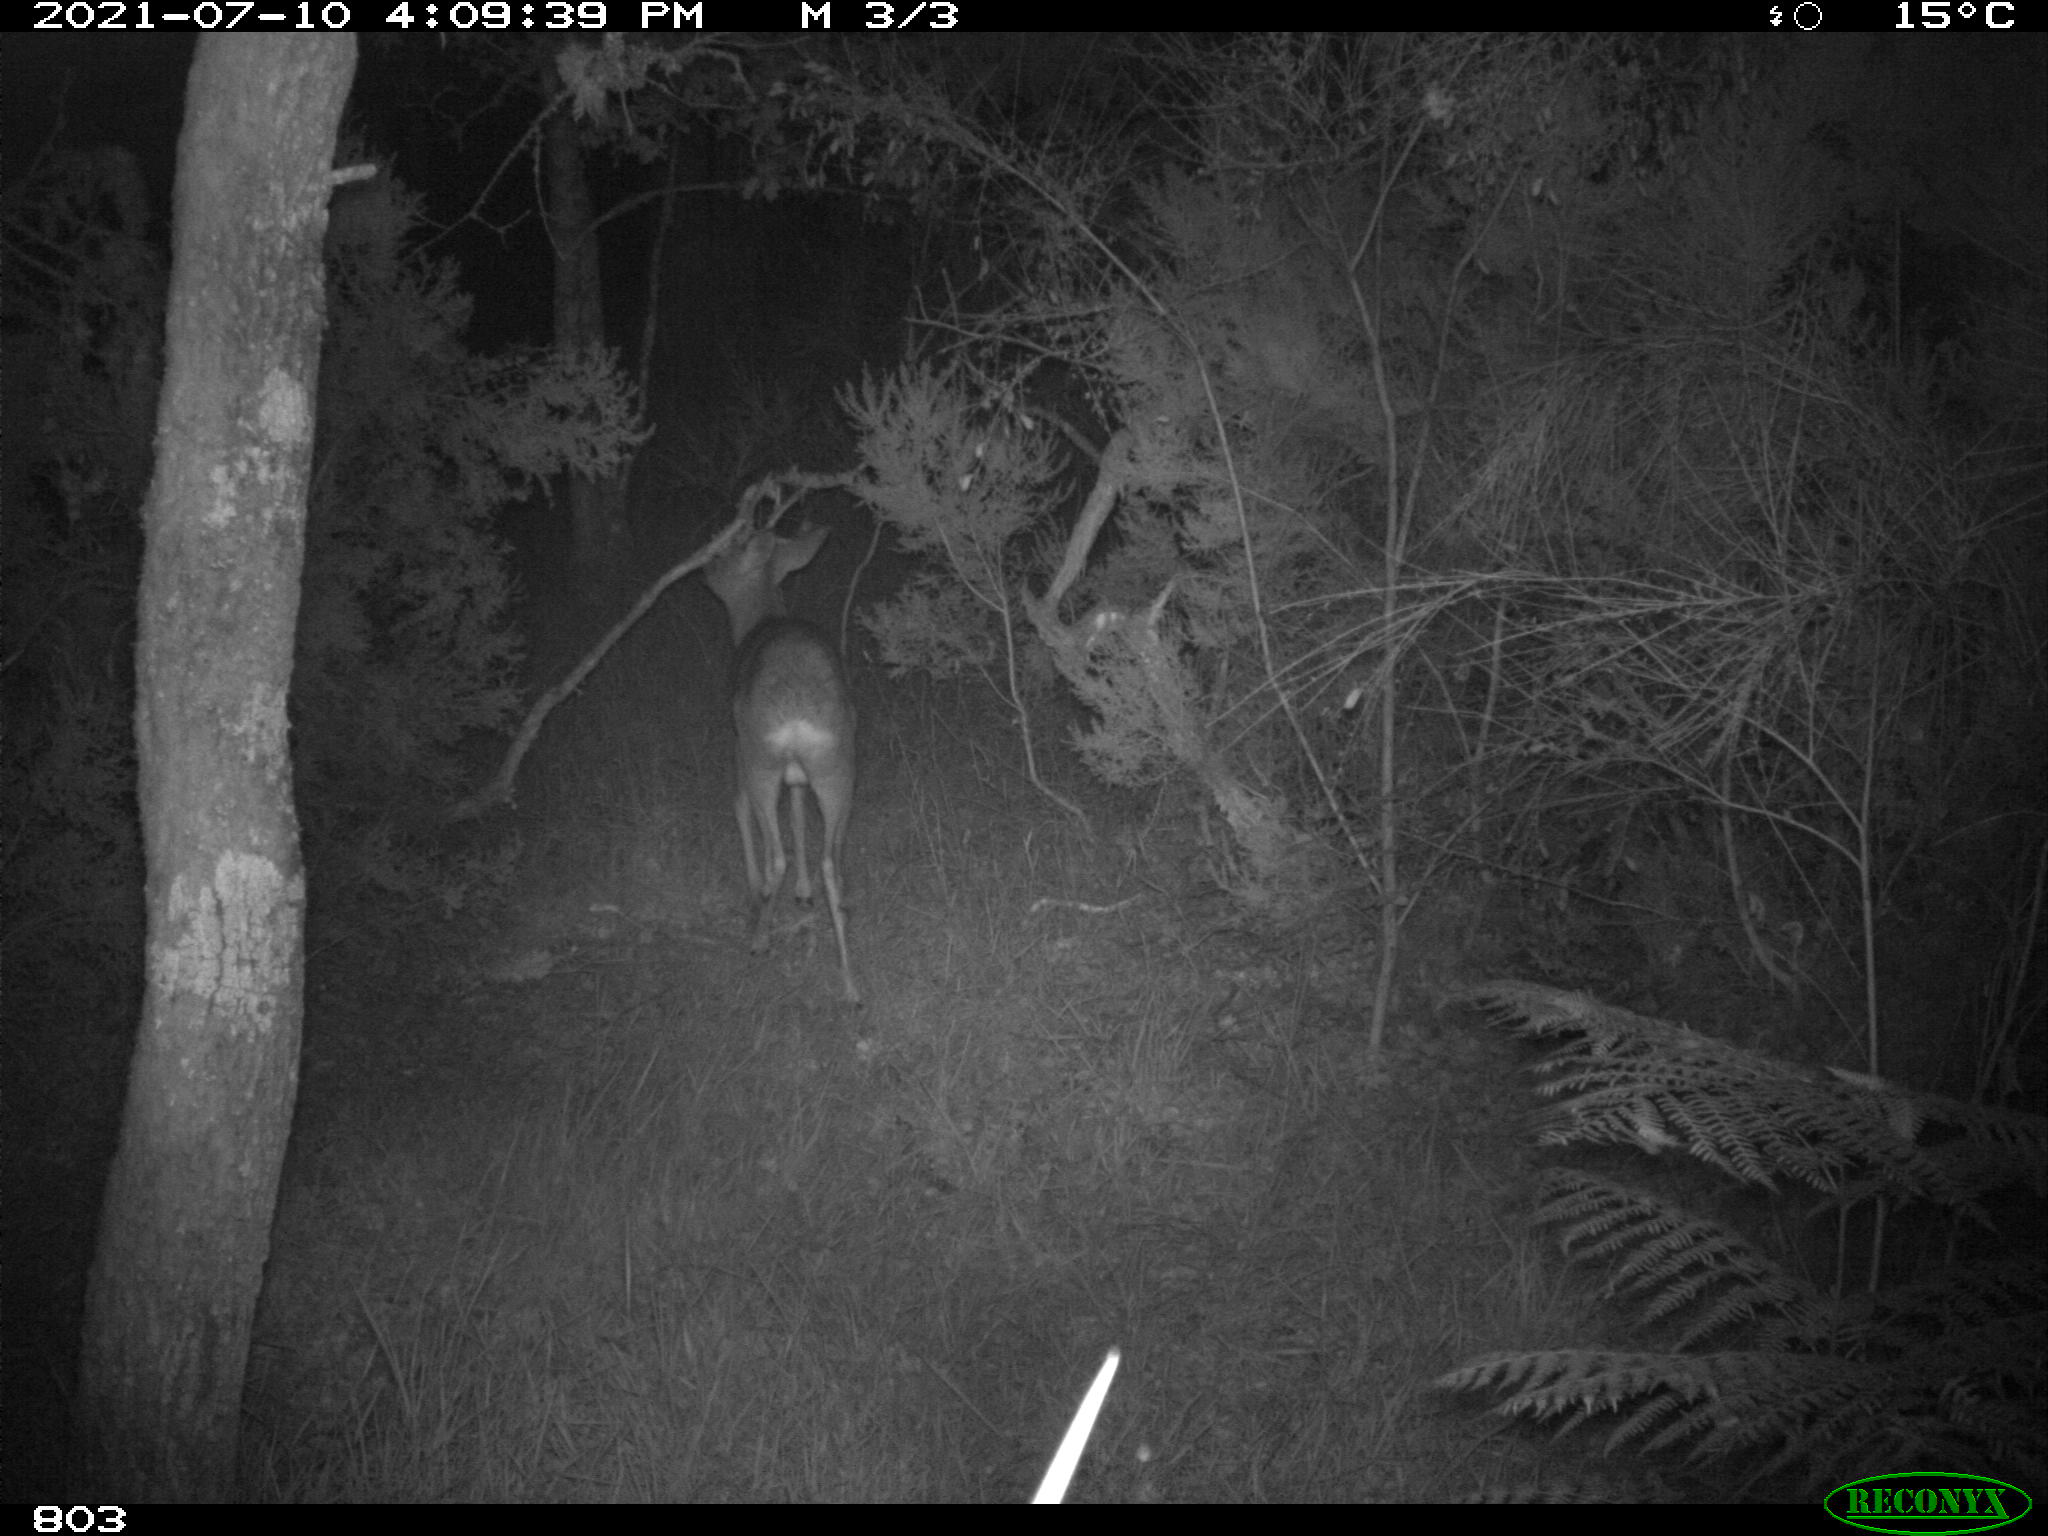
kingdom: Animalia
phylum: Chordata
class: Mammalia
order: Artiodactyla
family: Cervidae
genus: Capreolus
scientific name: Capreolus capreolus
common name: Western roe deer
